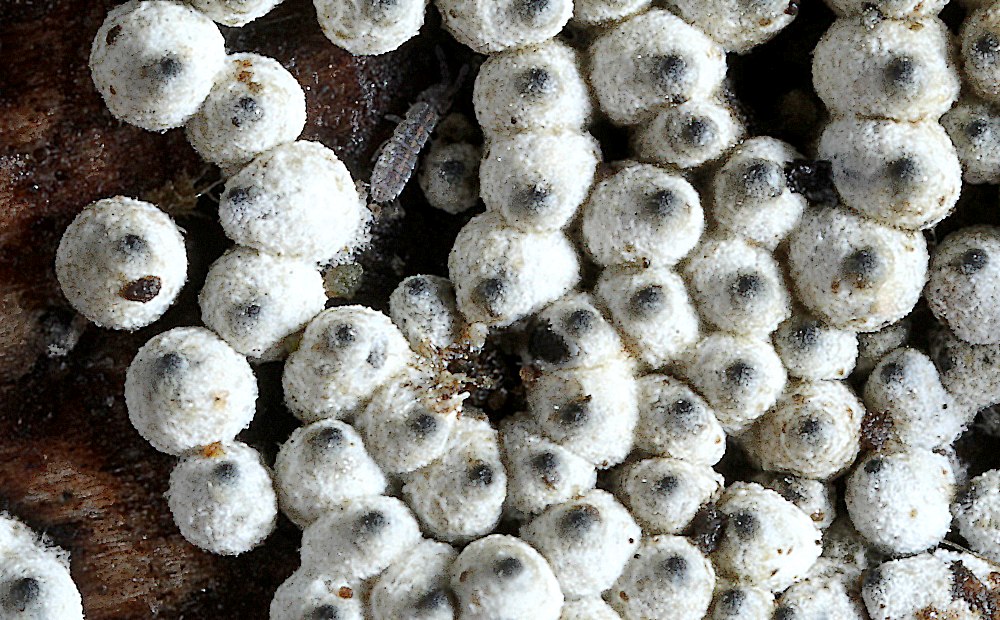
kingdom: Fungi
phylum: Ascomycota
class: Sordariomycetes
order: Sordariales
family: Lasiosphaeriaceae
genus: Lasiosphaeria
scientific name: Lasiosphaeria ovina
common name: fåre-kernesvamp
